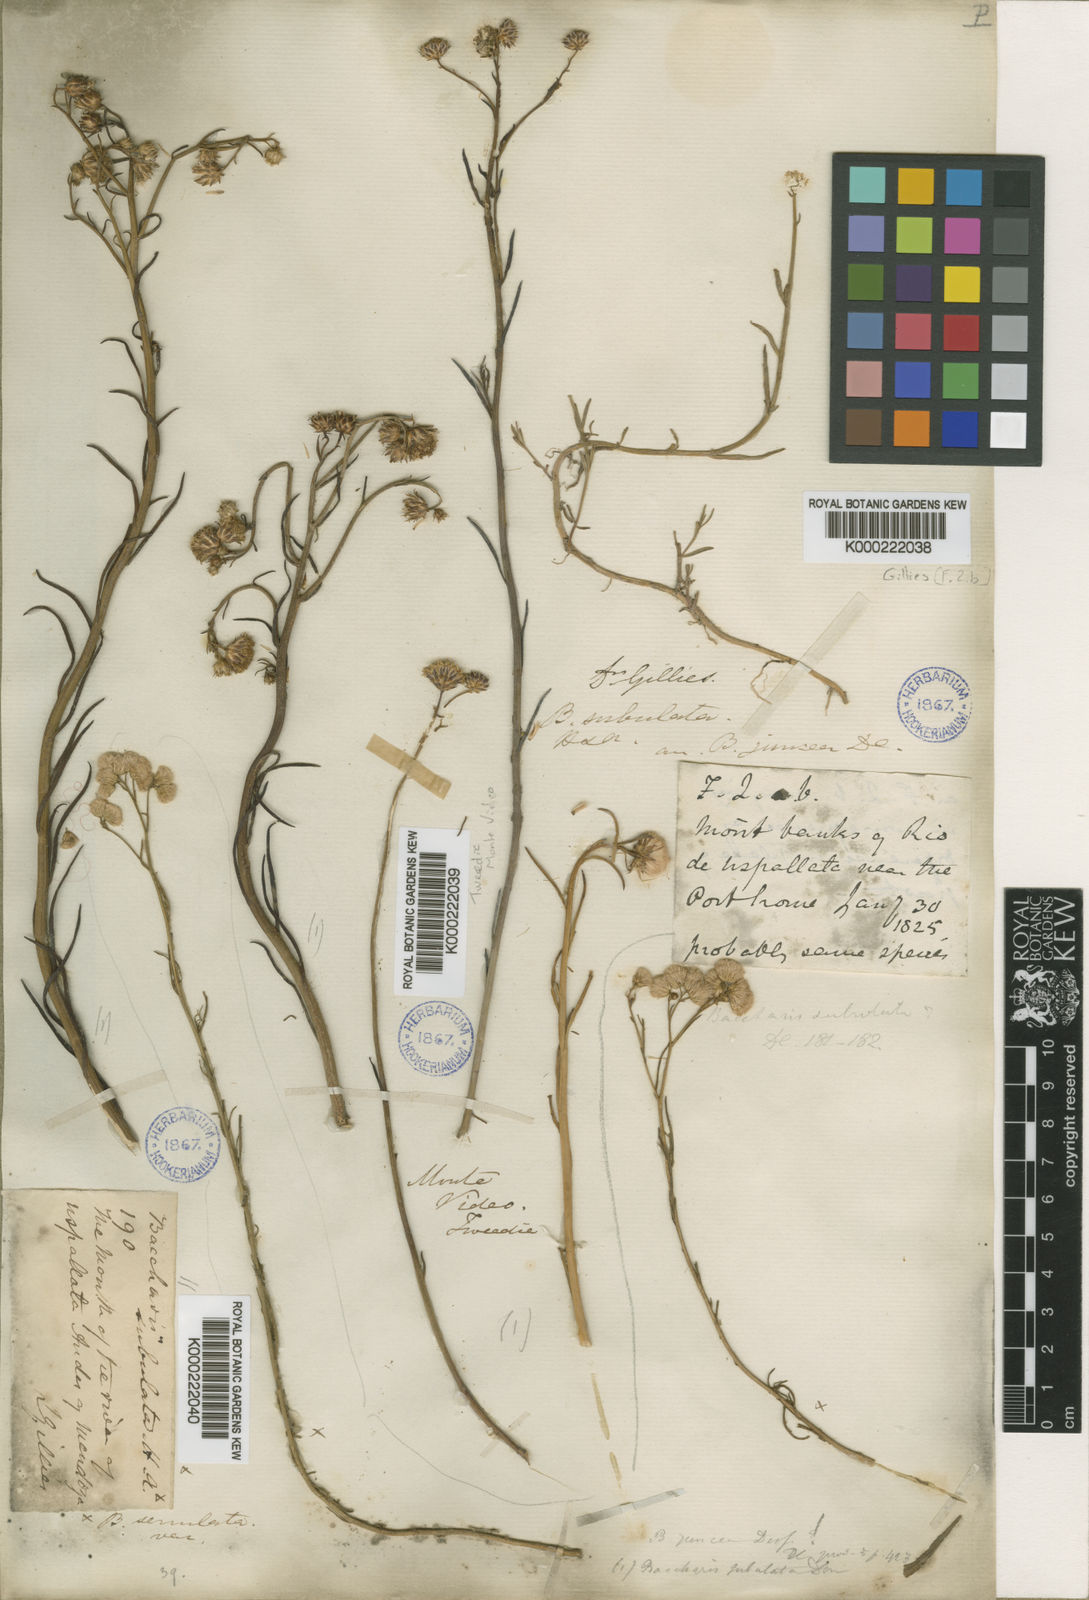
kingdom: Plantae
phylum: Tracheophyta
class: Magnoliopsida
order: Asterales
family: Asteraceae
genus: Baccharis
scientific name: Baccharis juncea
